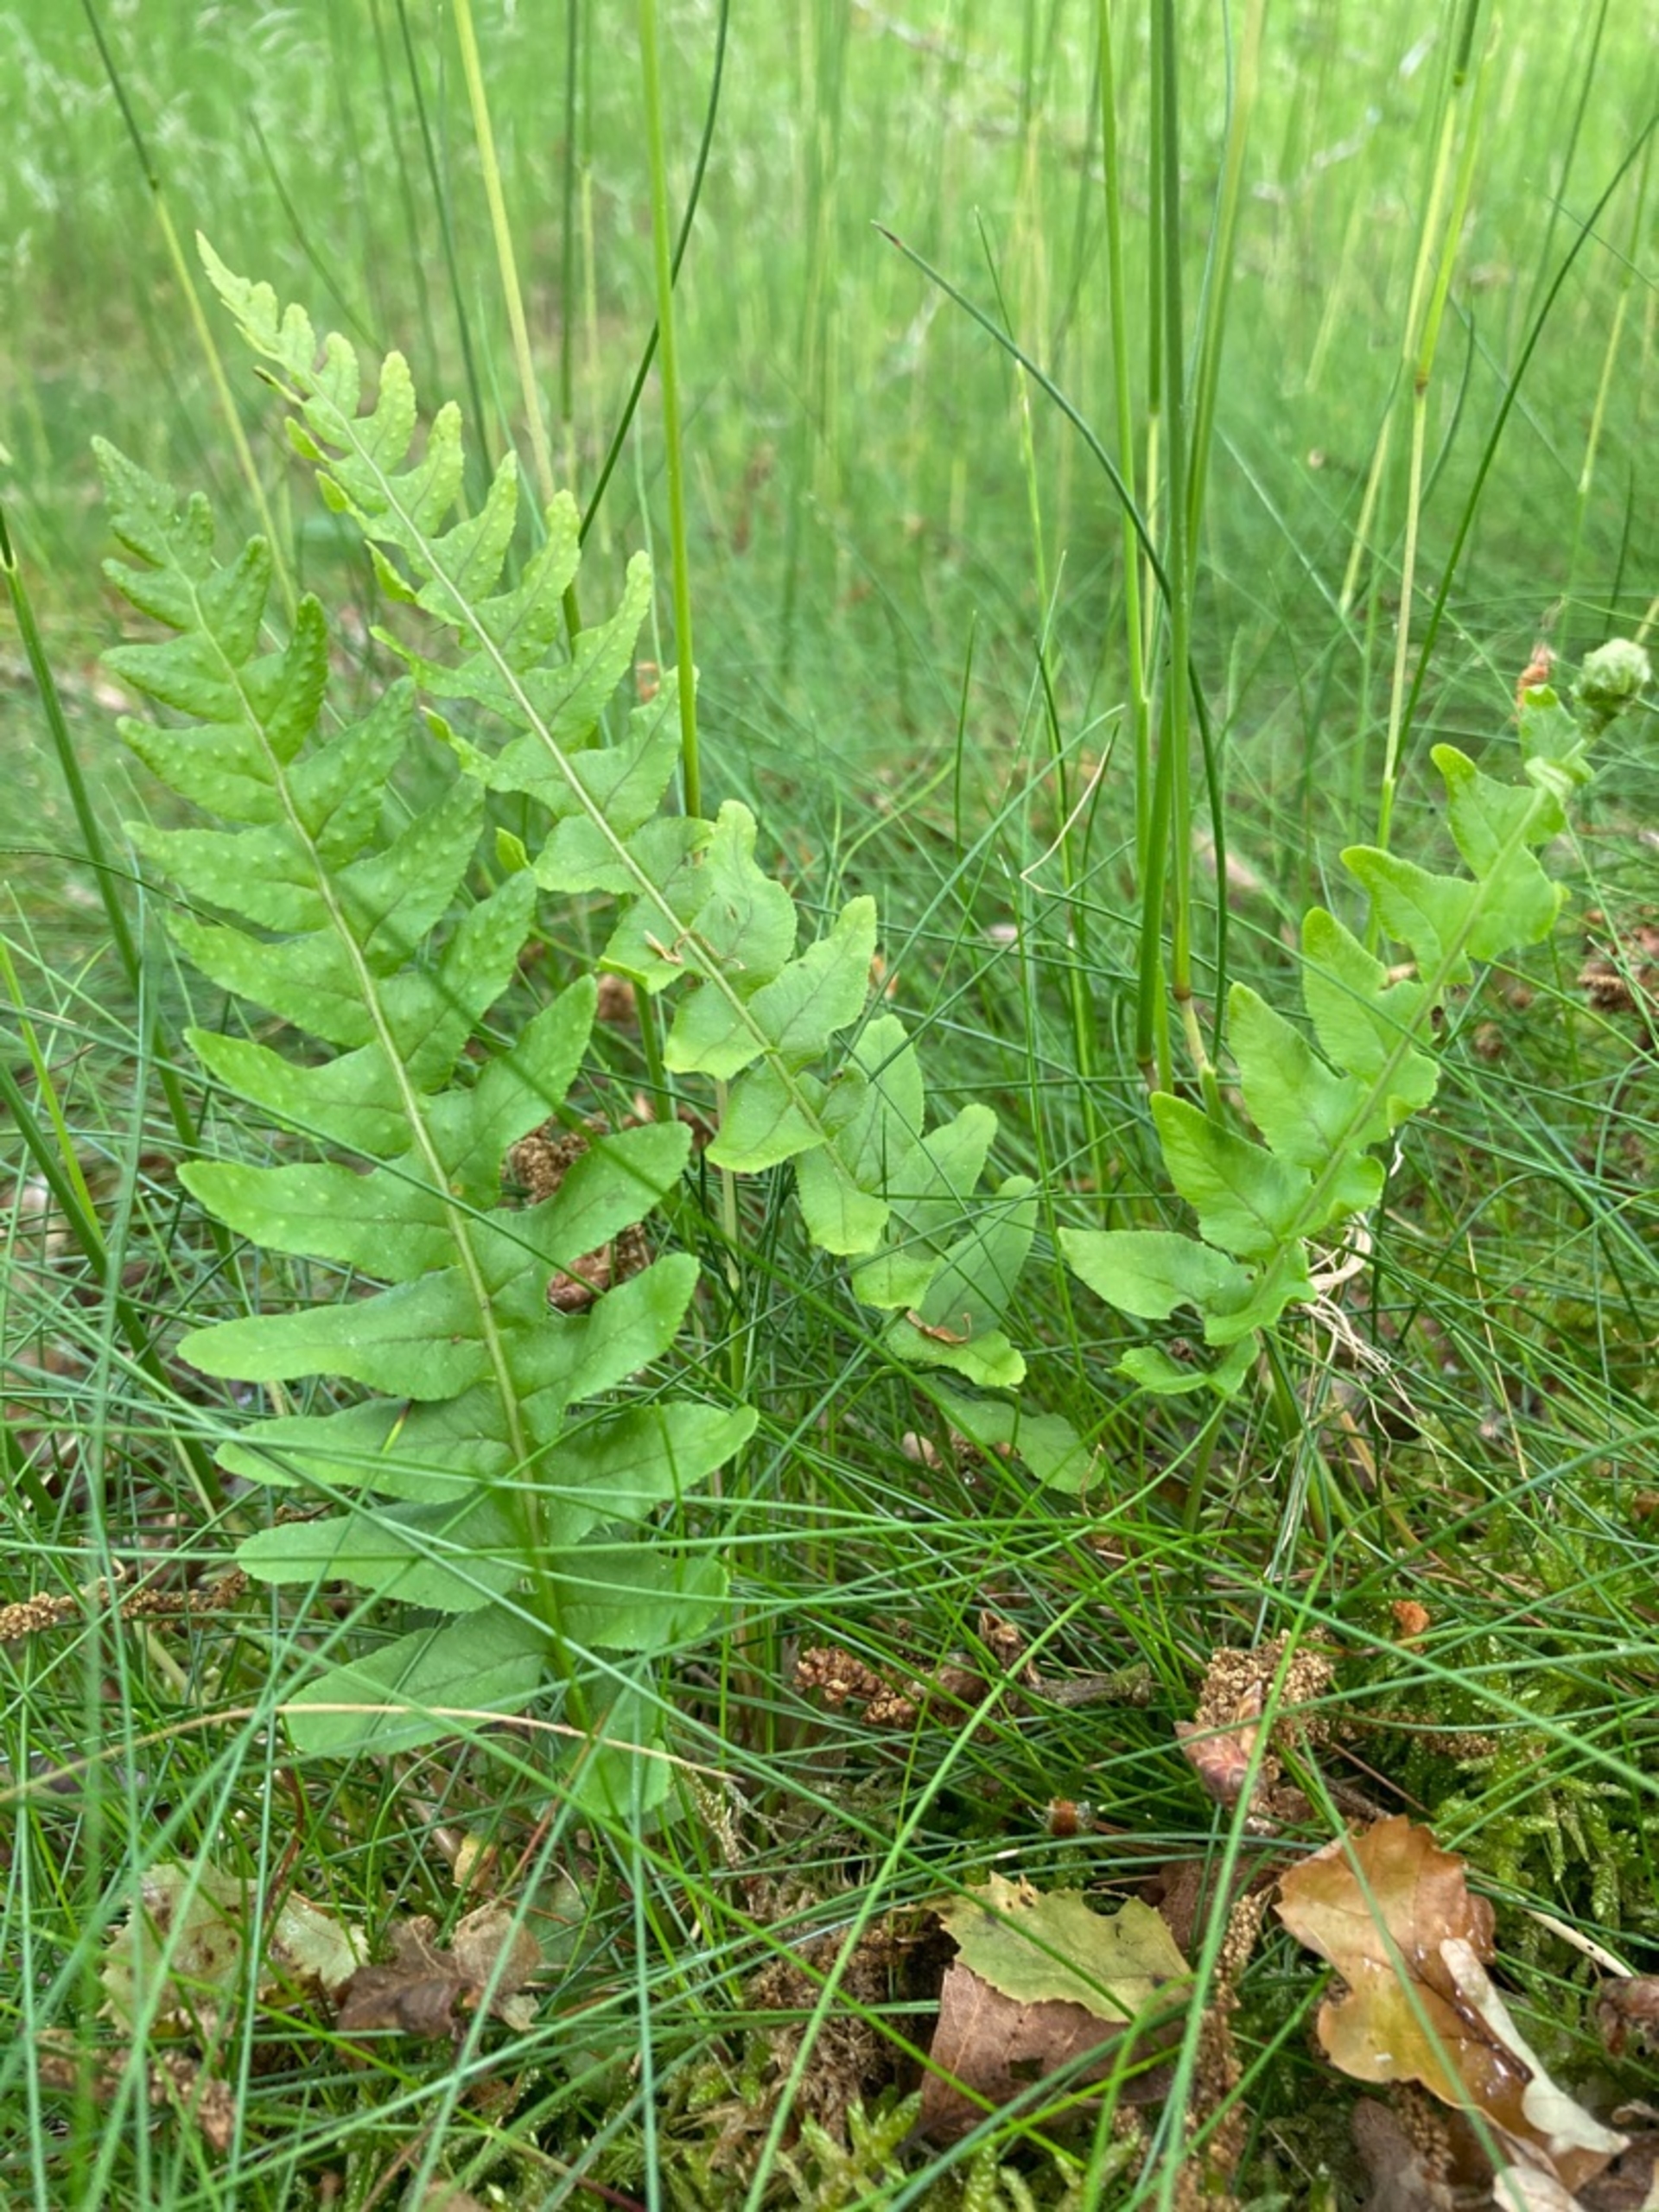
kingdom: Plantae
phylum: Tracheophyta
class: Polypodiopsida
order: Polypodiales
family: Polypodiaceae
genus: Polypodium
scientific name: Polypodium vulgare
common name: Almindelig engelsød
